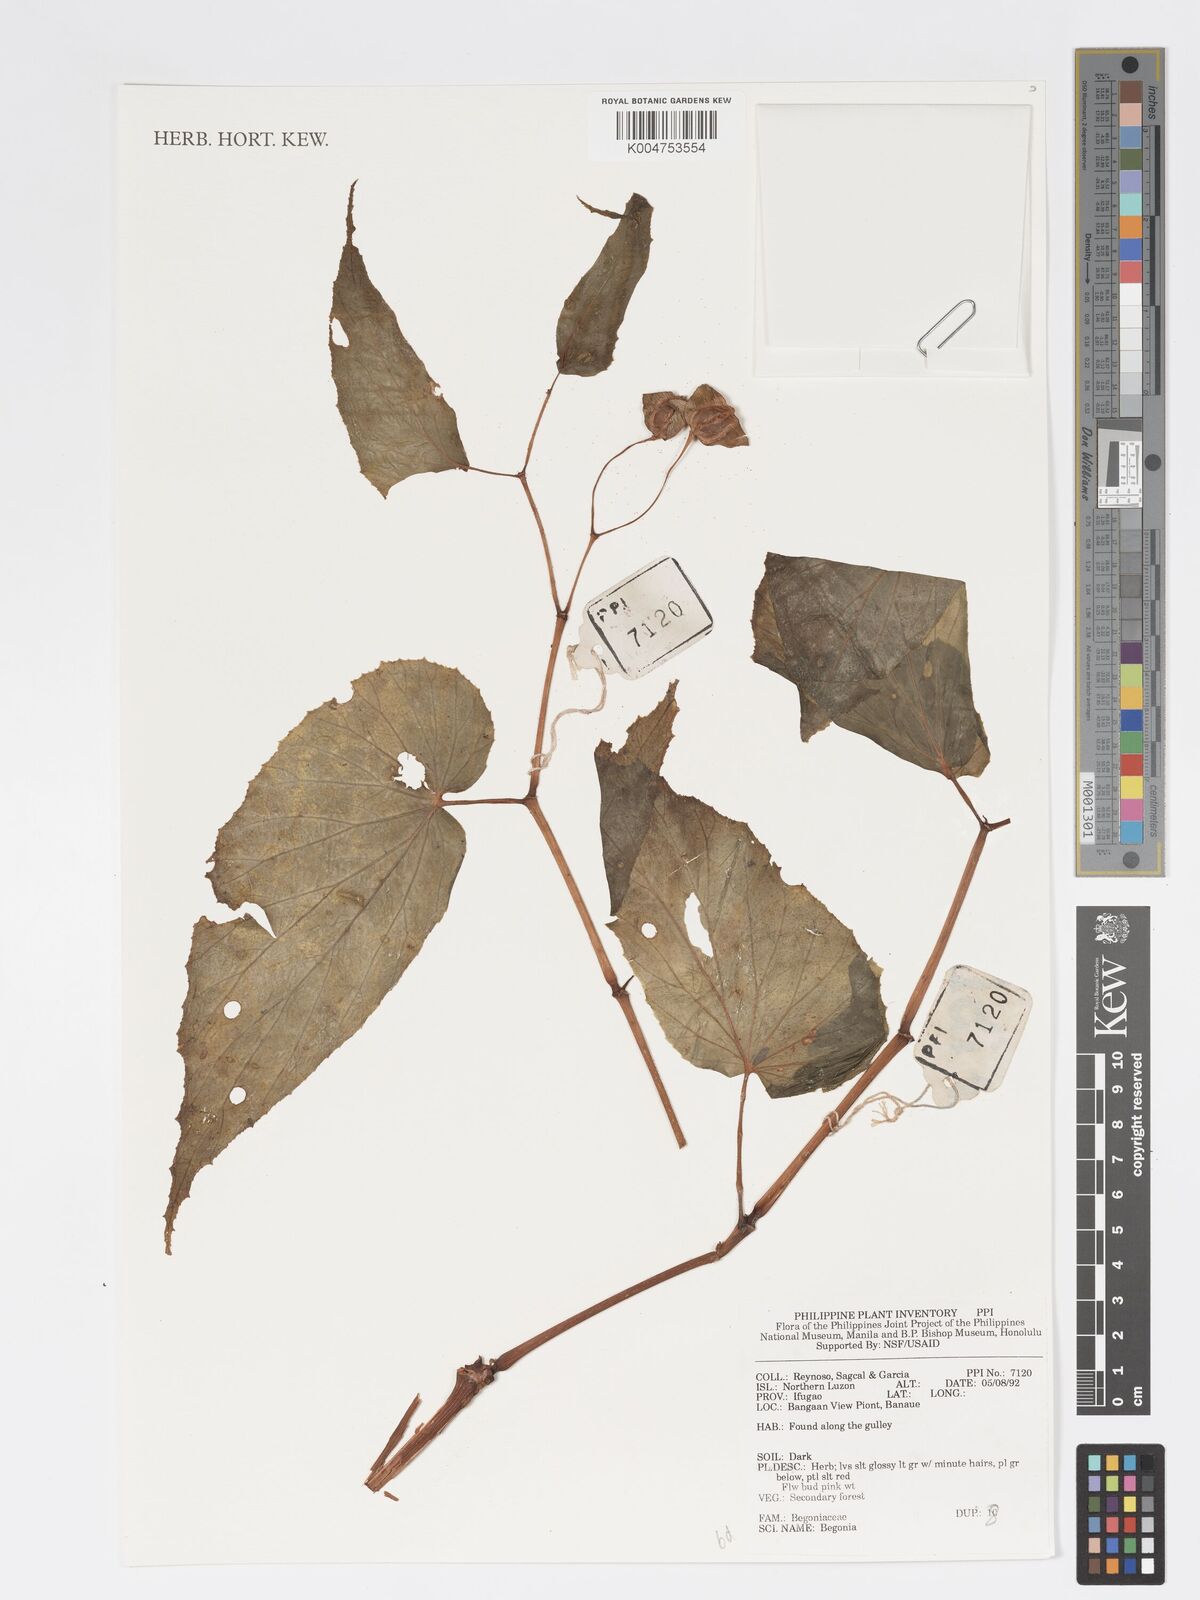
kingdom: Plantae
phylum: Tracheophyta
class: Magnoliopsida
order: Cucurbitales
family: Begoniaceae
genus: Begonia
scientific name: Begonia
